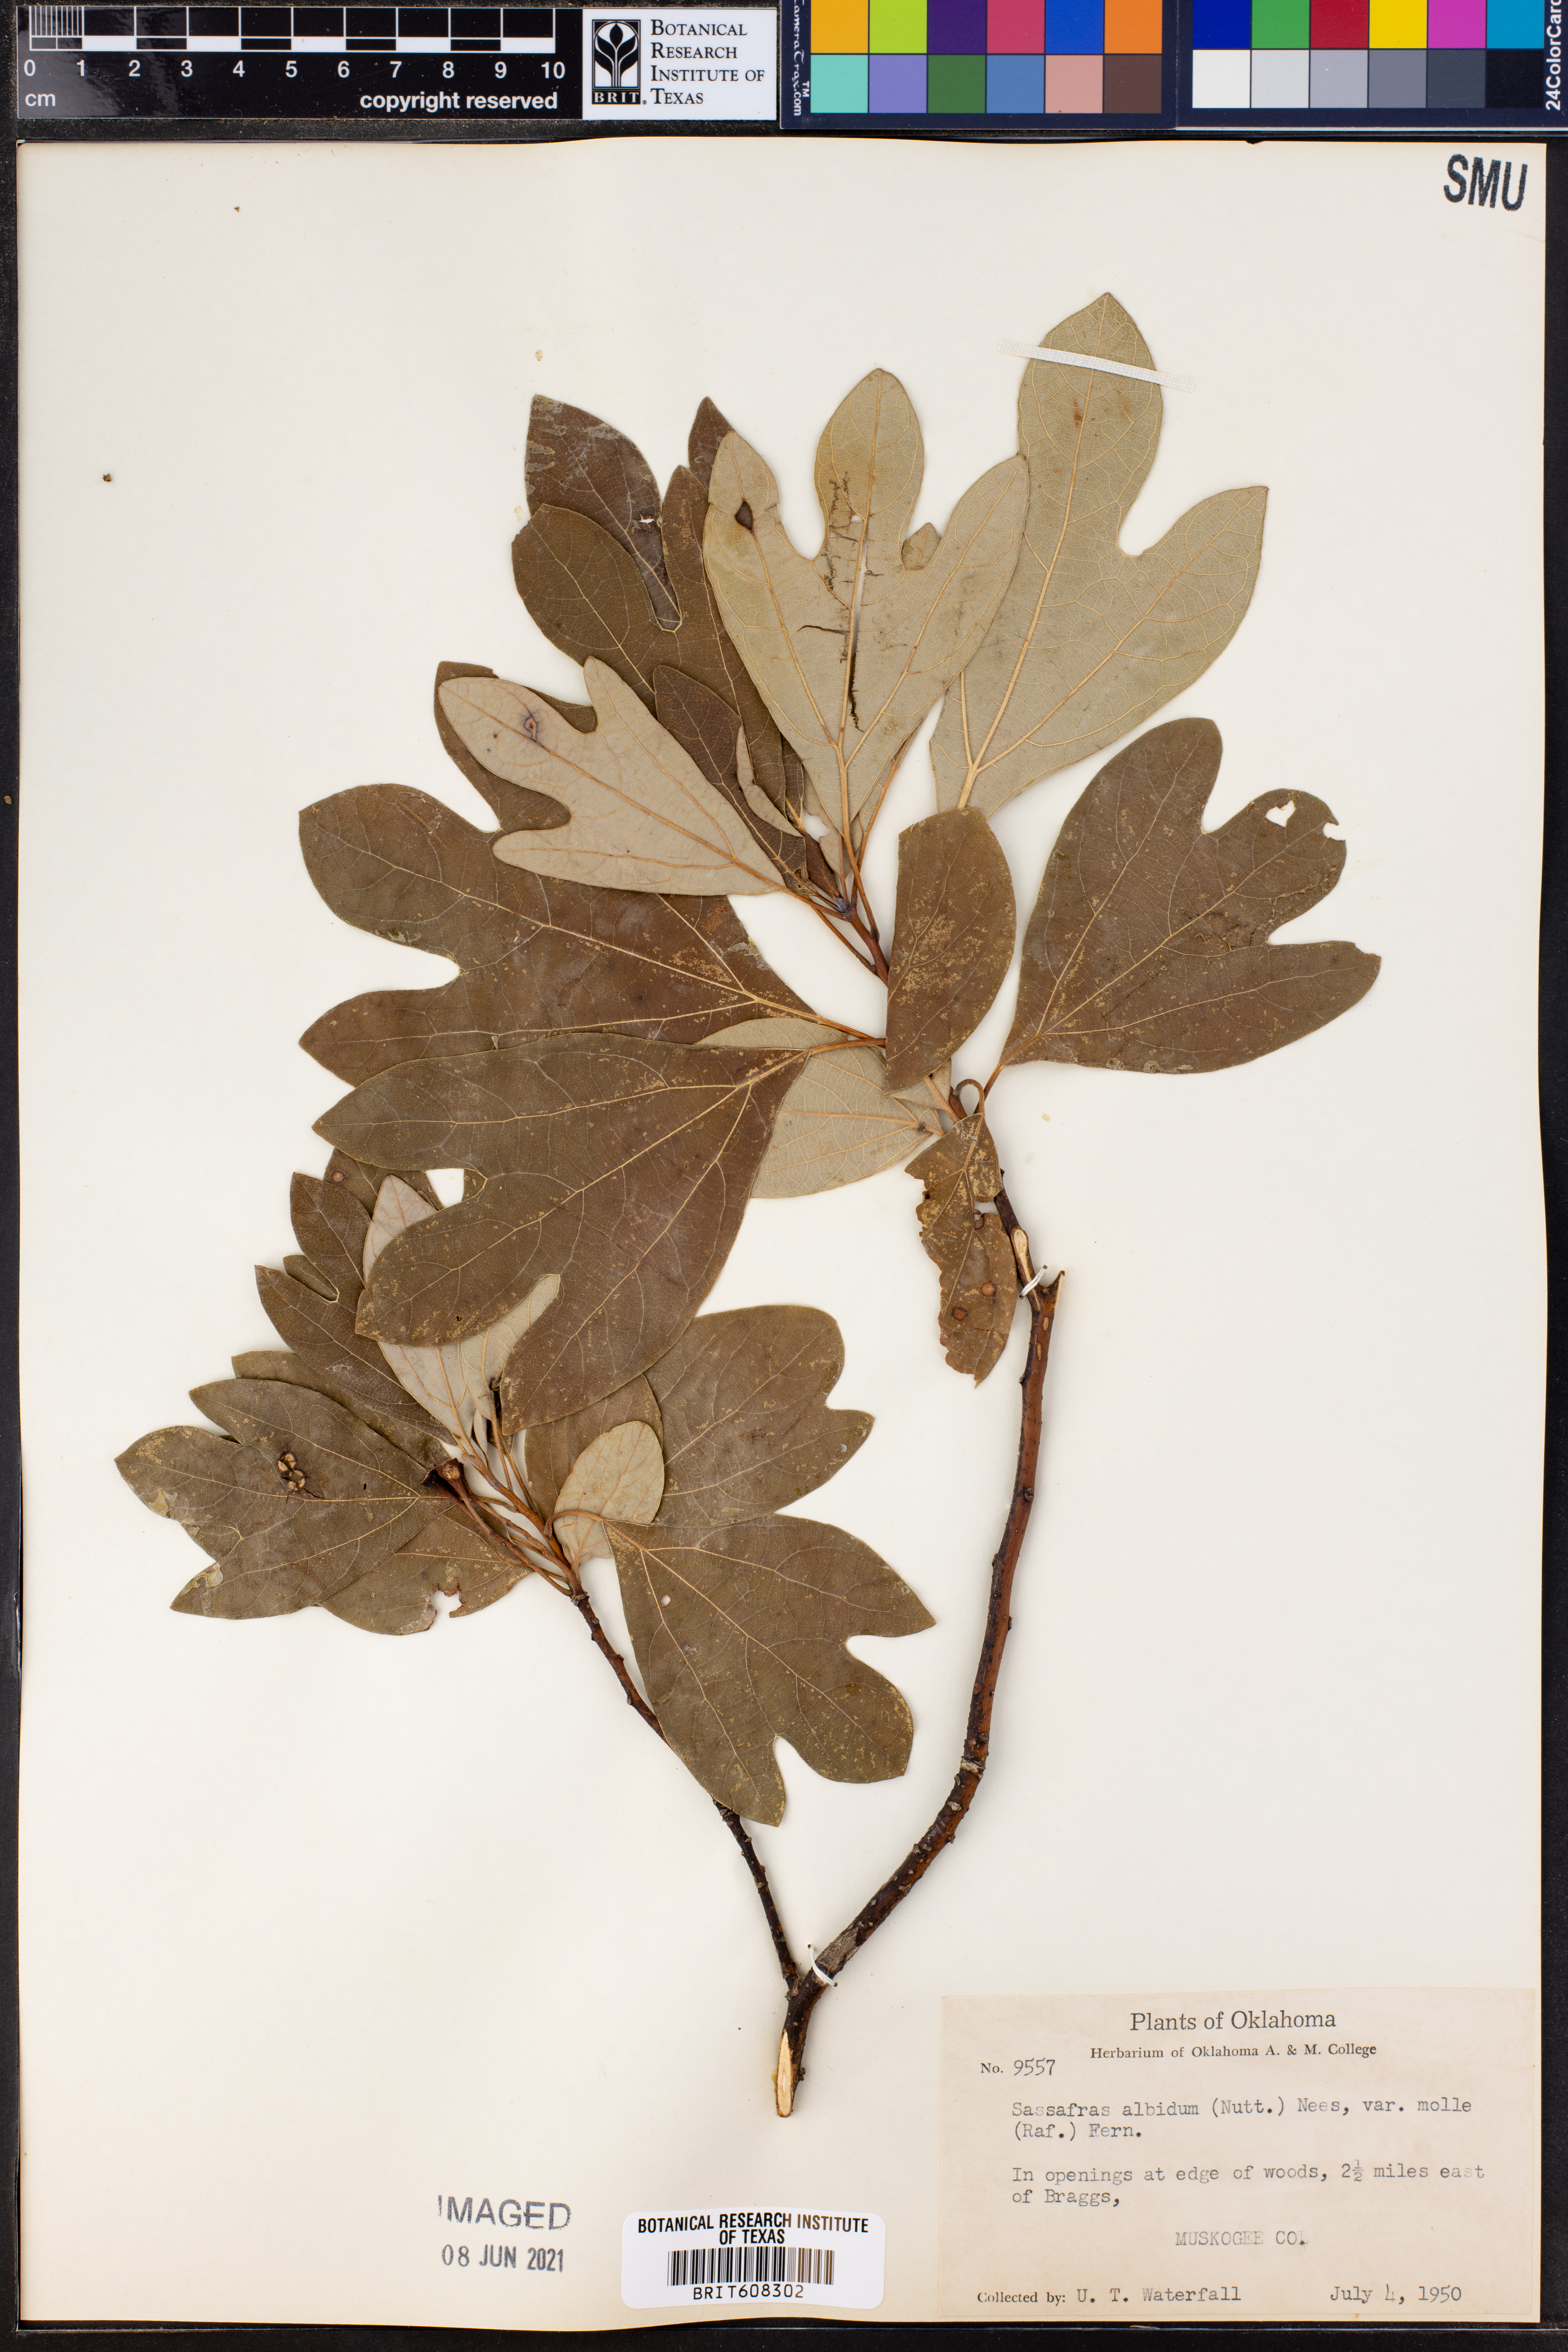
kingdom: Plantae
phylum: Tracheophyta
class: Magnoliopsida
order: Laurales
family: Lauraceae
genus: Sassafras
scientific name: Sassafras albidum
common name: Sassafras
